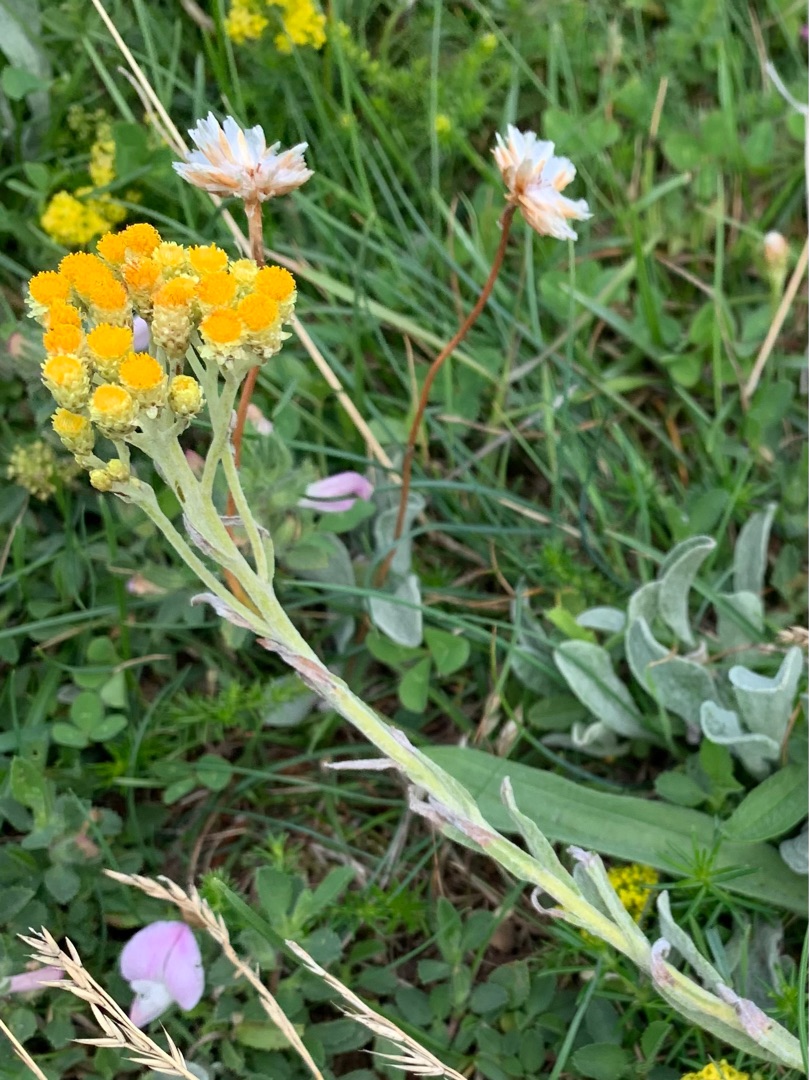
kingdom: Plantae
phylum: Tracheophyta
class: Magnoliopsida
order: Asterales
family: Asteraceae
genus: Helichrysum
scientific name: Helichrysum arenarium
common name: Gul evighedsblomst
